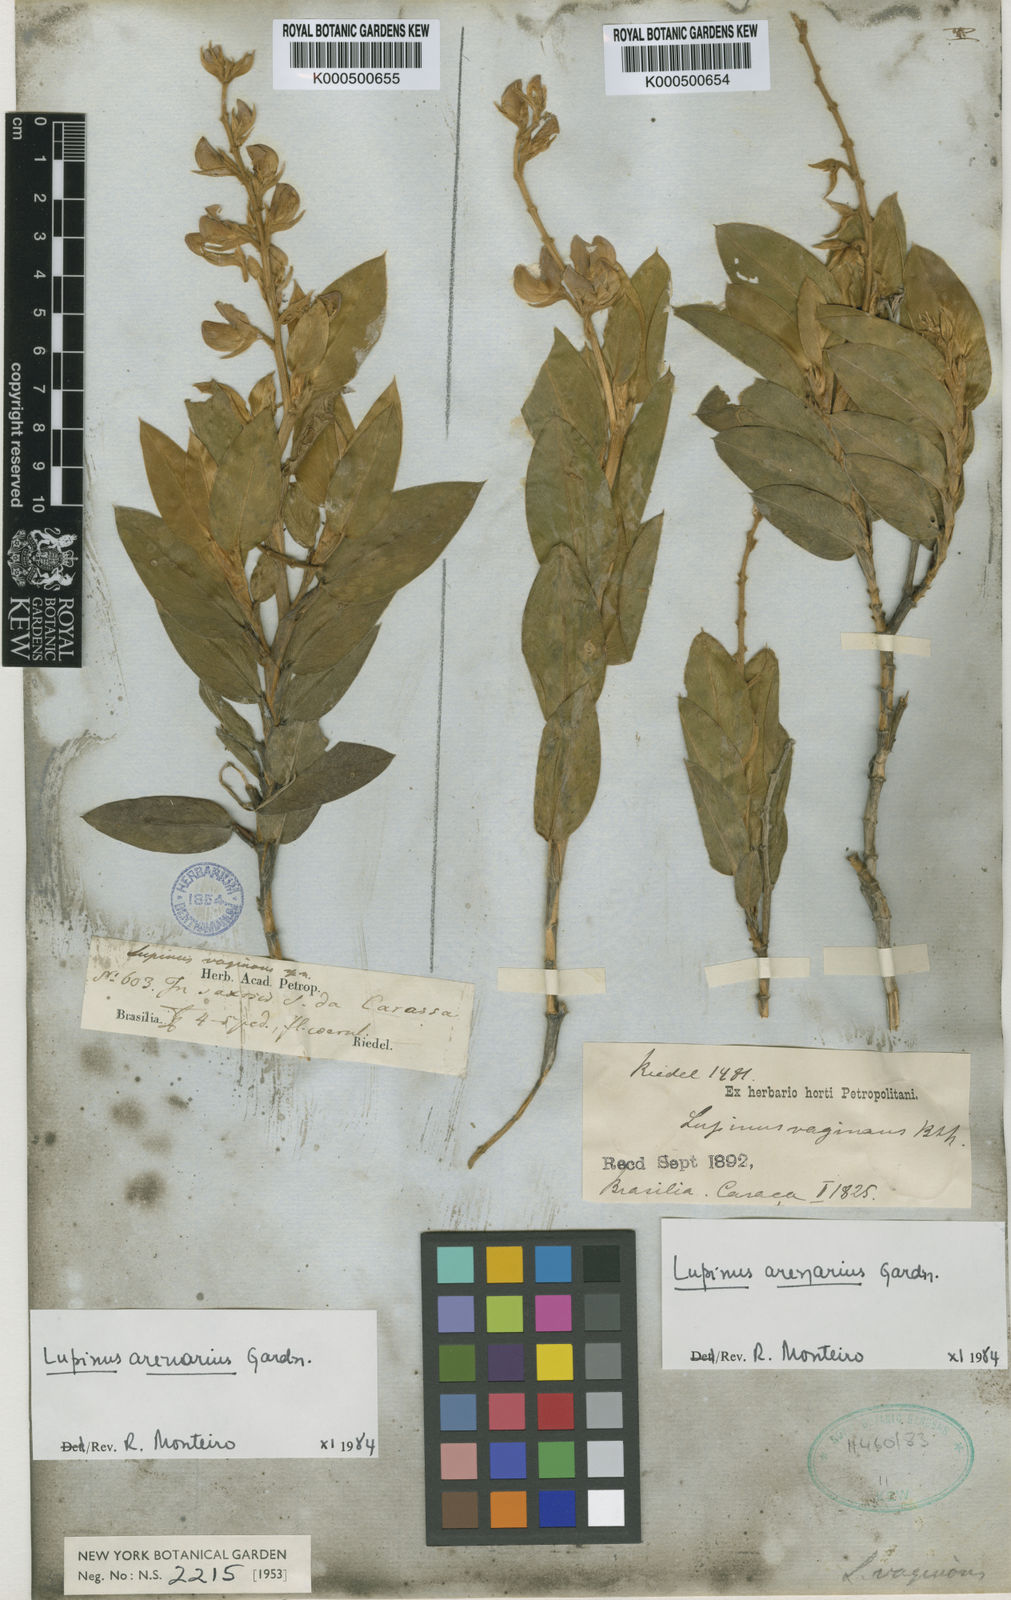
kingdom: Plantae
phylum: Tracheophyta
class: Magnoliopsida
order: Fabales
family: Fabaceae
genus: Lupinus
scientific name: Lupinus arenarius
